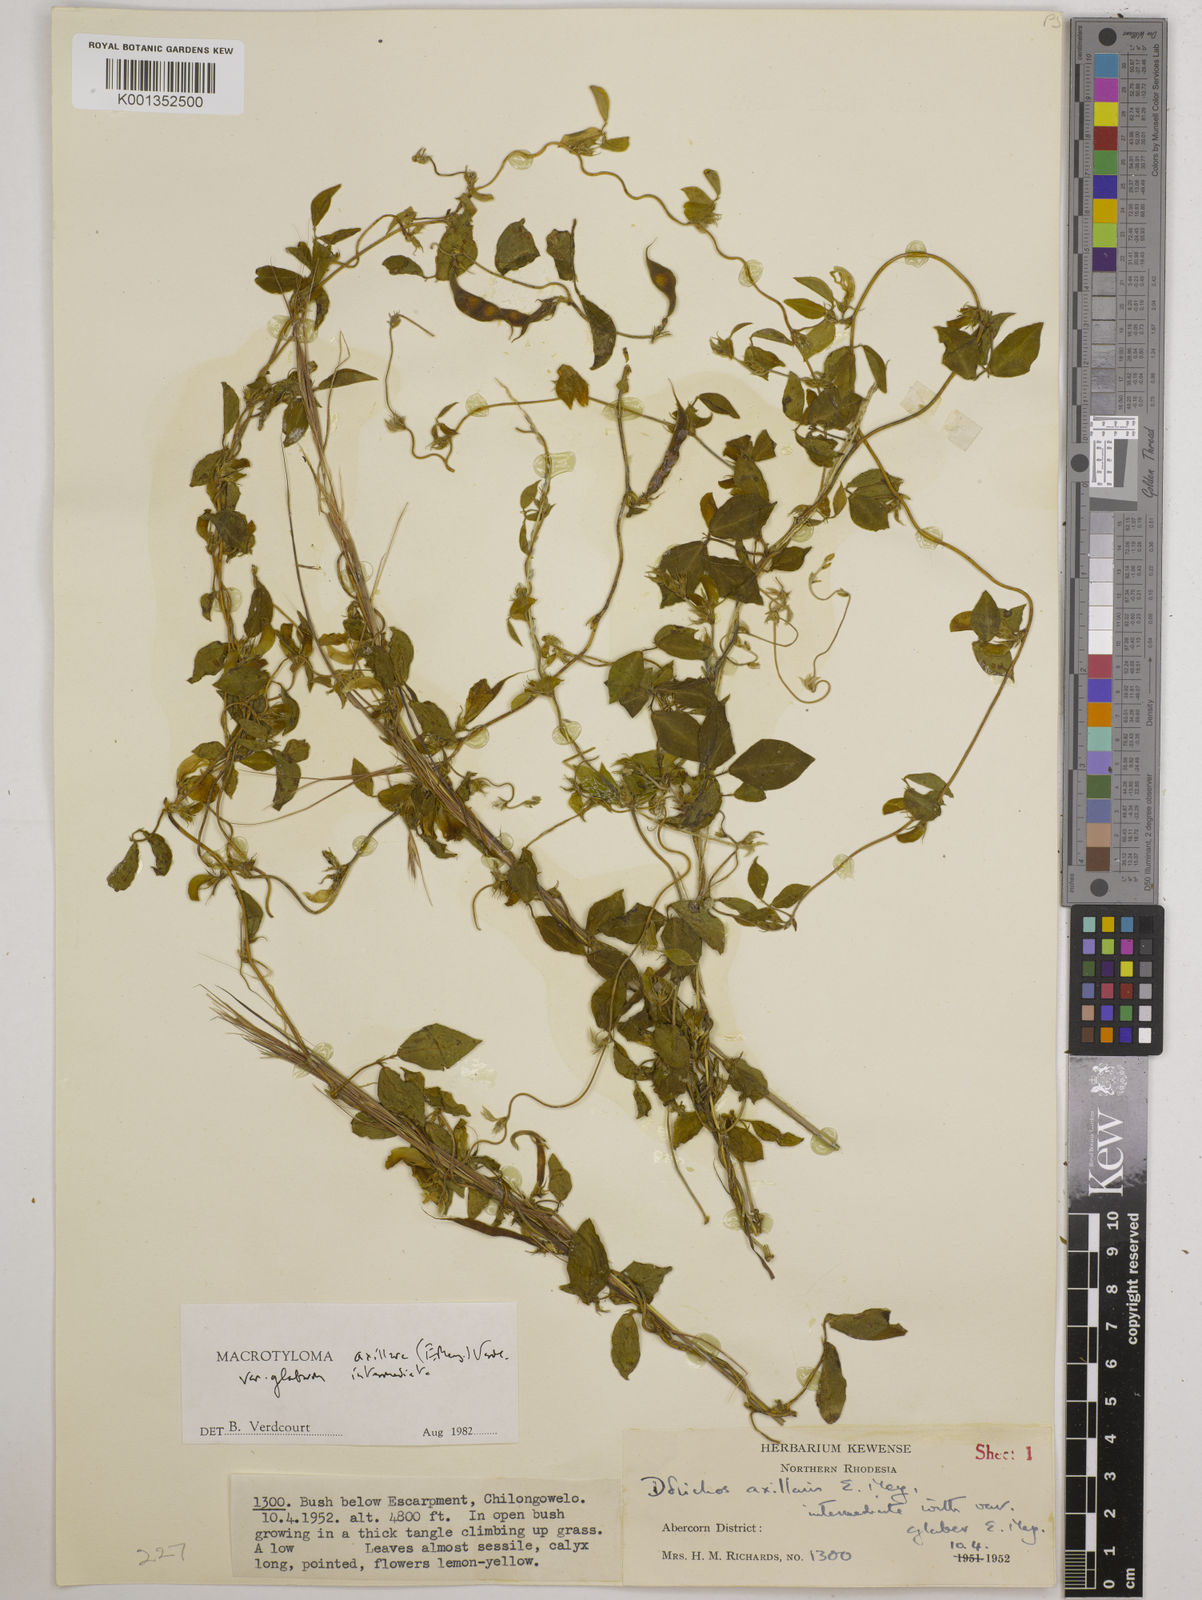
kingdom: Plantae
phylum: Tracheophyta
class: Magnoliopsida
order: Fabales
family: Fabaceae
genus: Macrotyloma
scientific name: Macrotyloma
